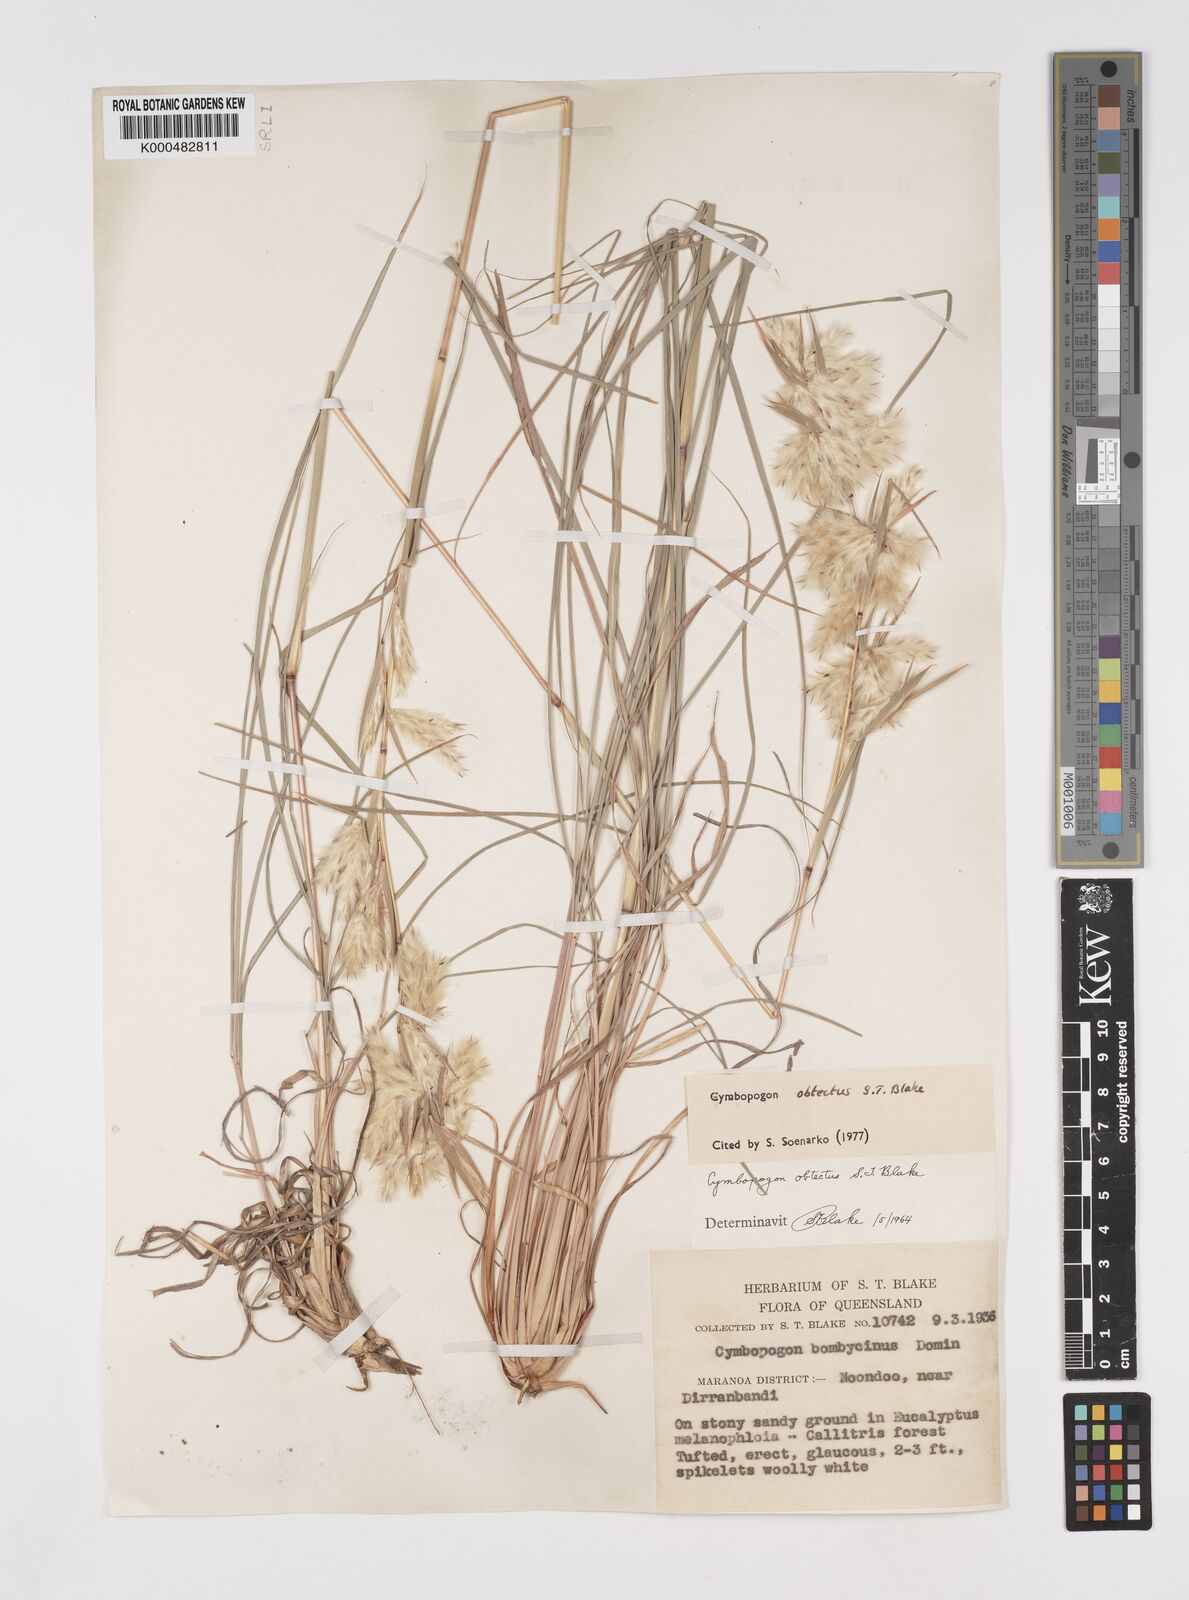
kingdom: Plantae
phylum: Tracheophyta
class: Liliopsida
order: Poales
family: Poaceae
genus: Cymbopogon
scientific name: Cymbopogon obtectus
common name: Silky heads
